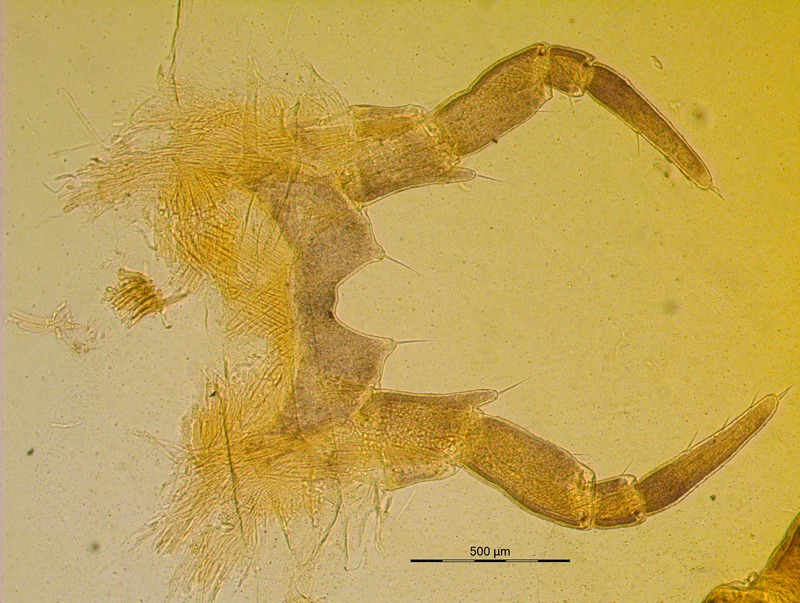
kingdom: Animalia
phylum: Arthropoda
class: Diplopoda
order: Glomerida
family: Glomeridae
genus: Glomeris
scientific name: Glomeris conspersa
